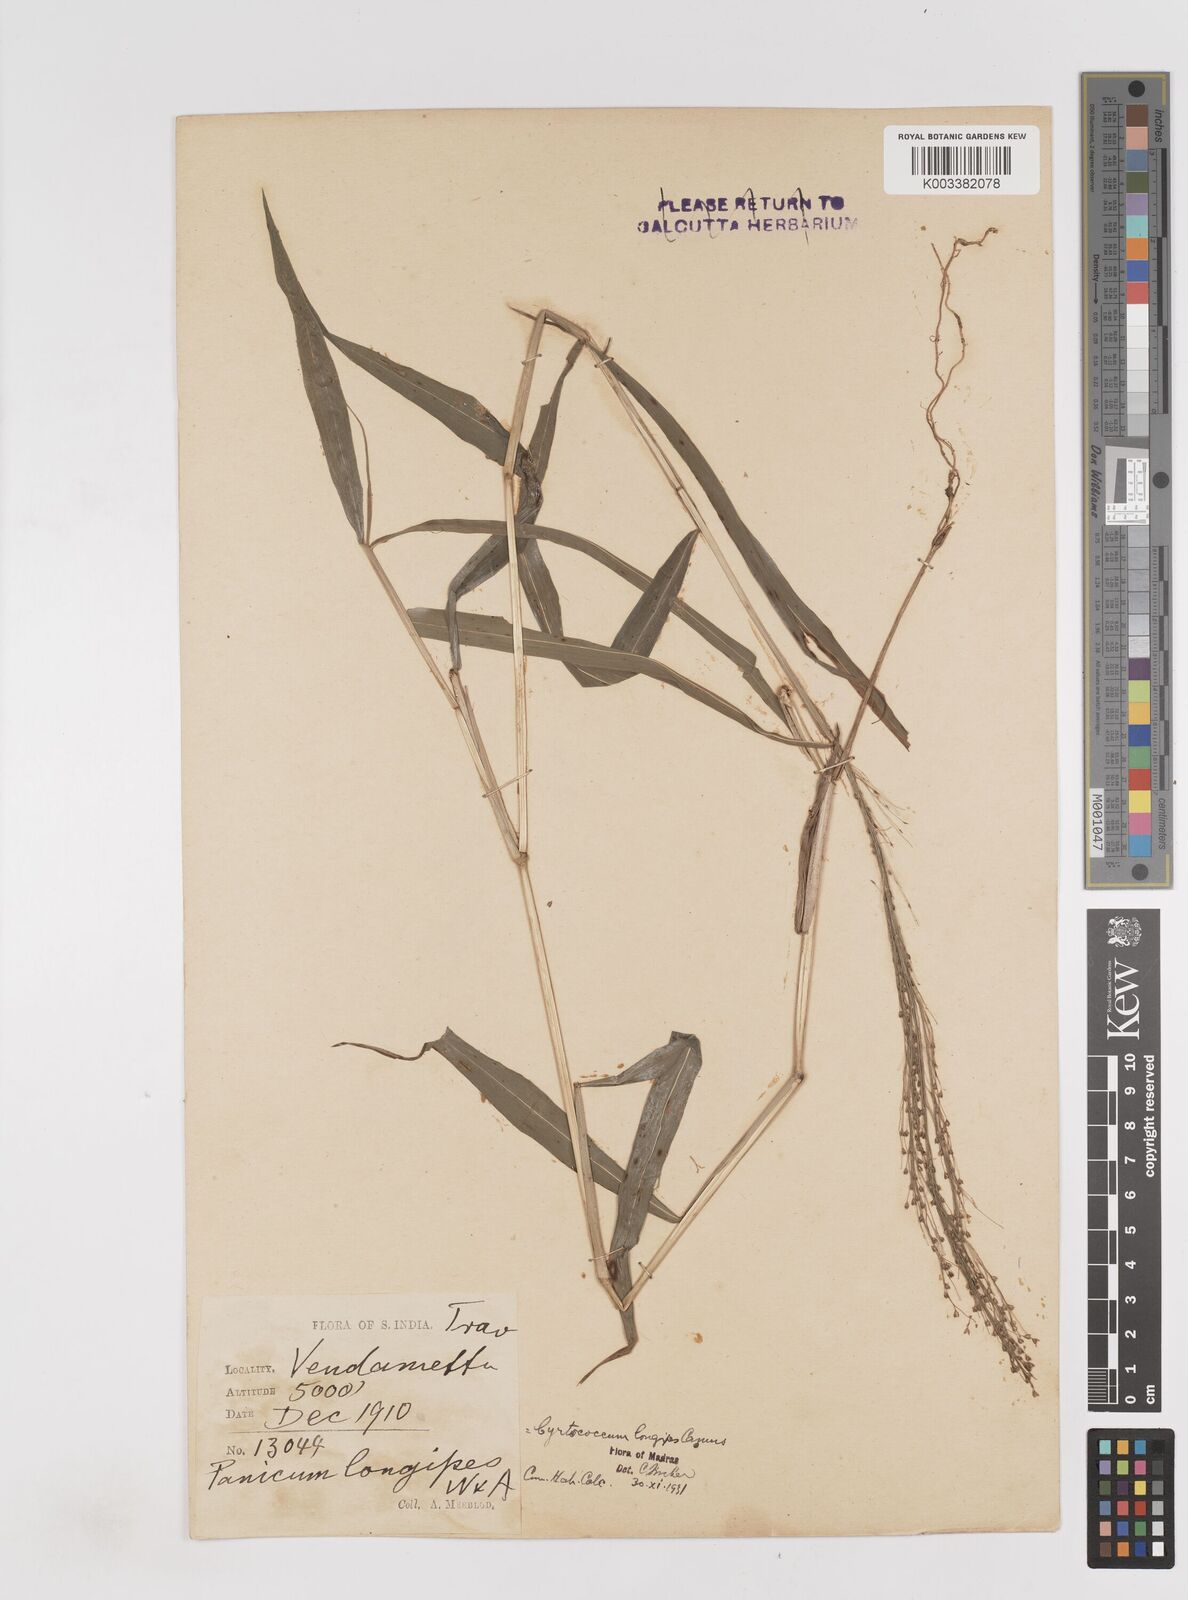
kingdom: Plantae
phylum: Tracheophyta
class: Liliopsida
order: Poales
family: Poaceae
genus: Cyrtococcum
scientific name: Cyrtococcum longipes
